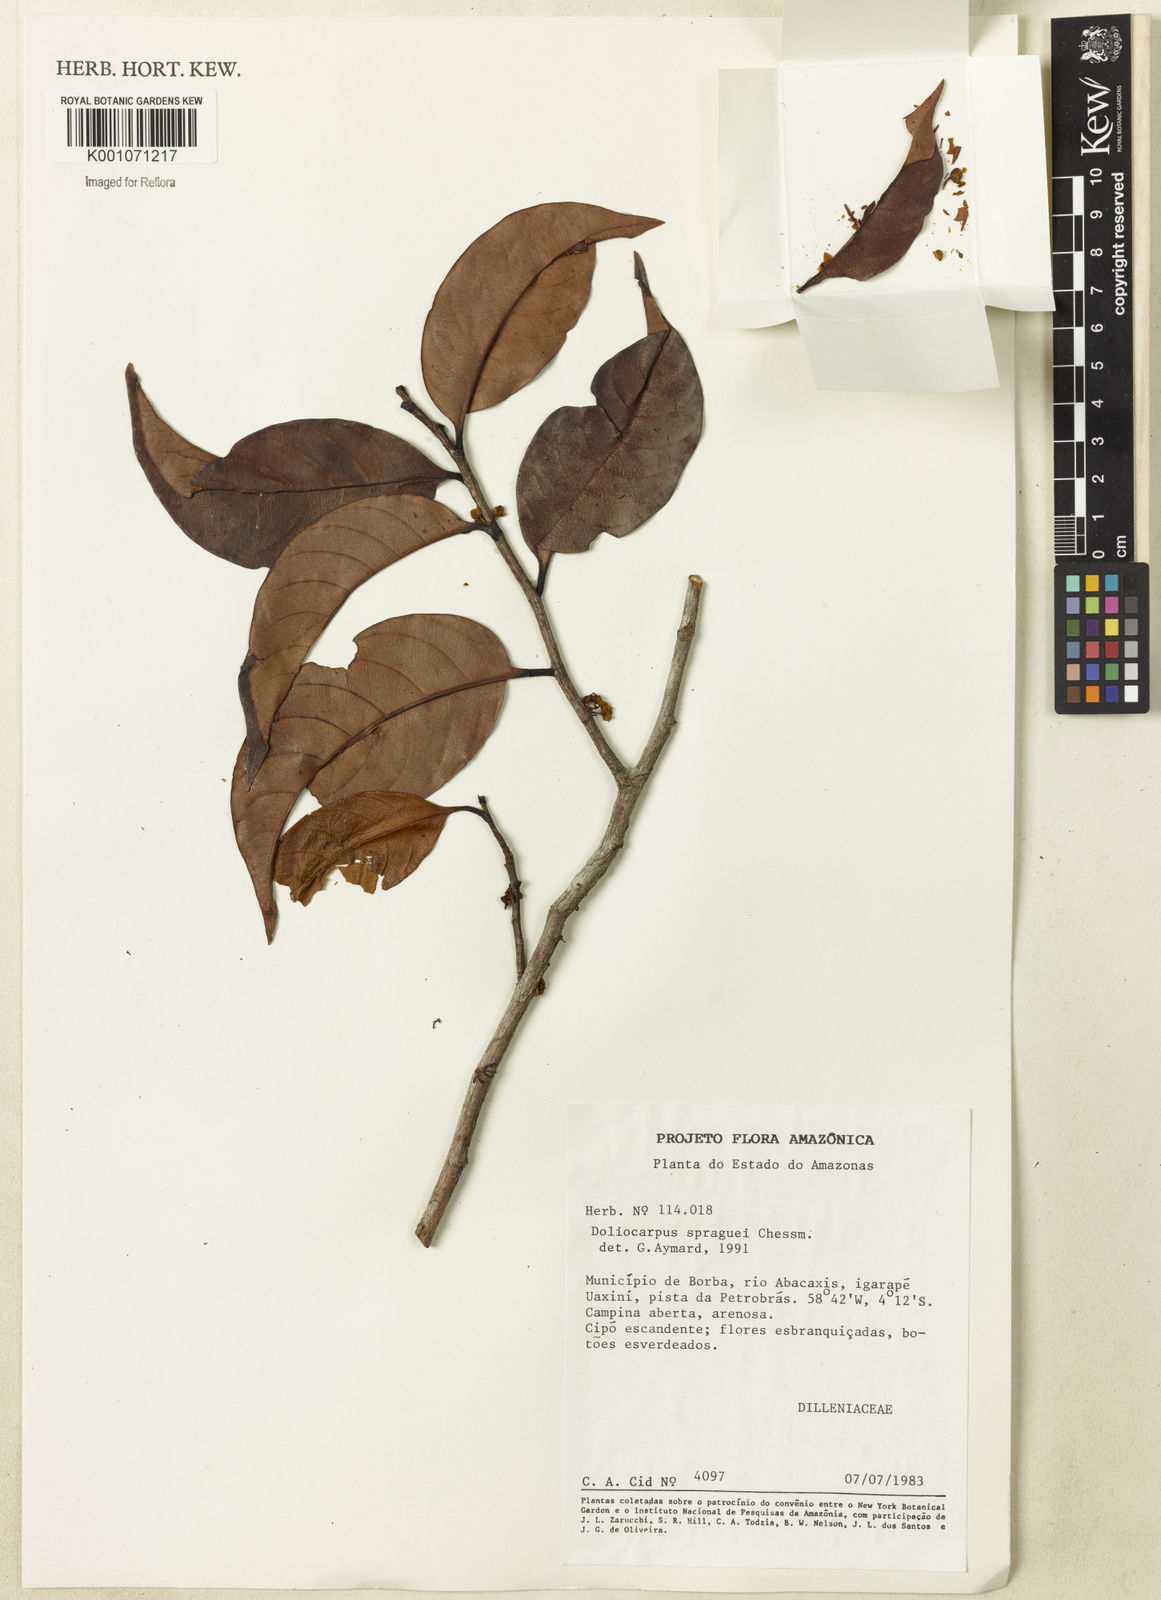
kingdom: Plantae
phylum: Tracheophyta
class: Magnoliopsida
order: Dilleniales
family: Dilleniaceae
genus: Doliocarpus
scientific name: Doliocarpus spraguei
